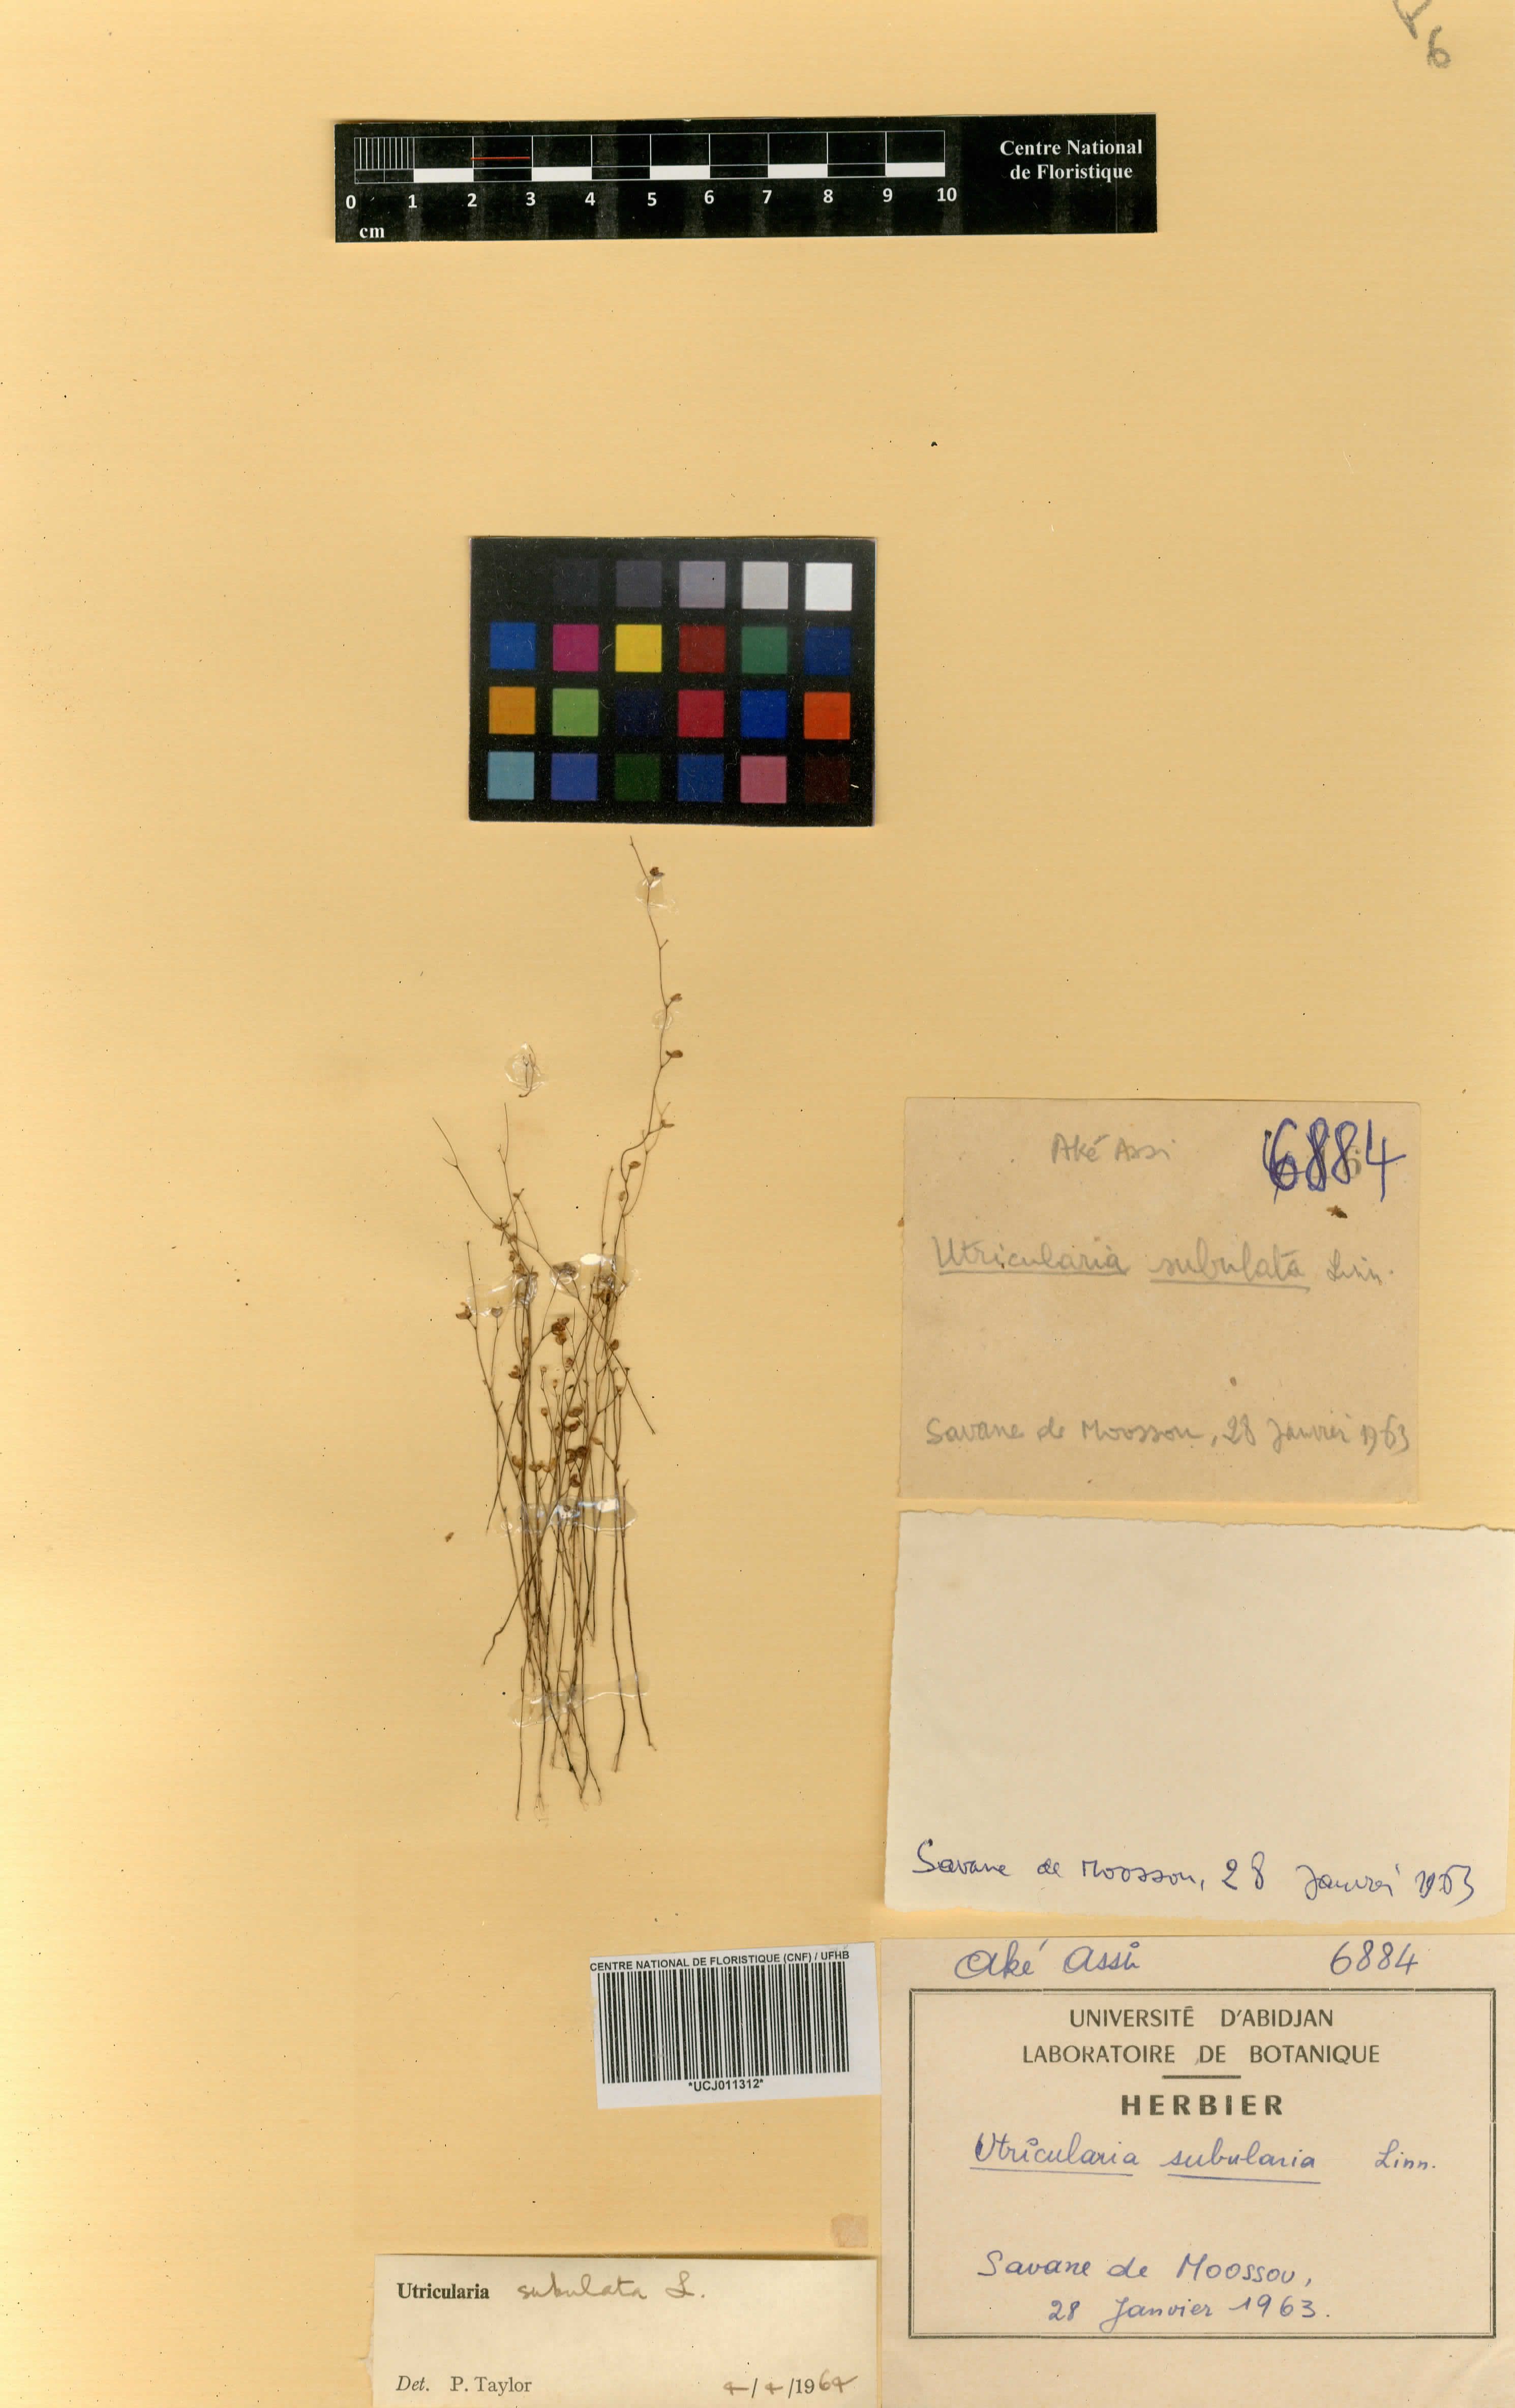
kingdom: Plantae
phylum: Tracheophyta
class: Magnoliopsida
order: Lamiales
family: Lentibulariaceae
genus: Utricularia
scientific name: Utricularia subulata
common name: Tiny bladderwort
